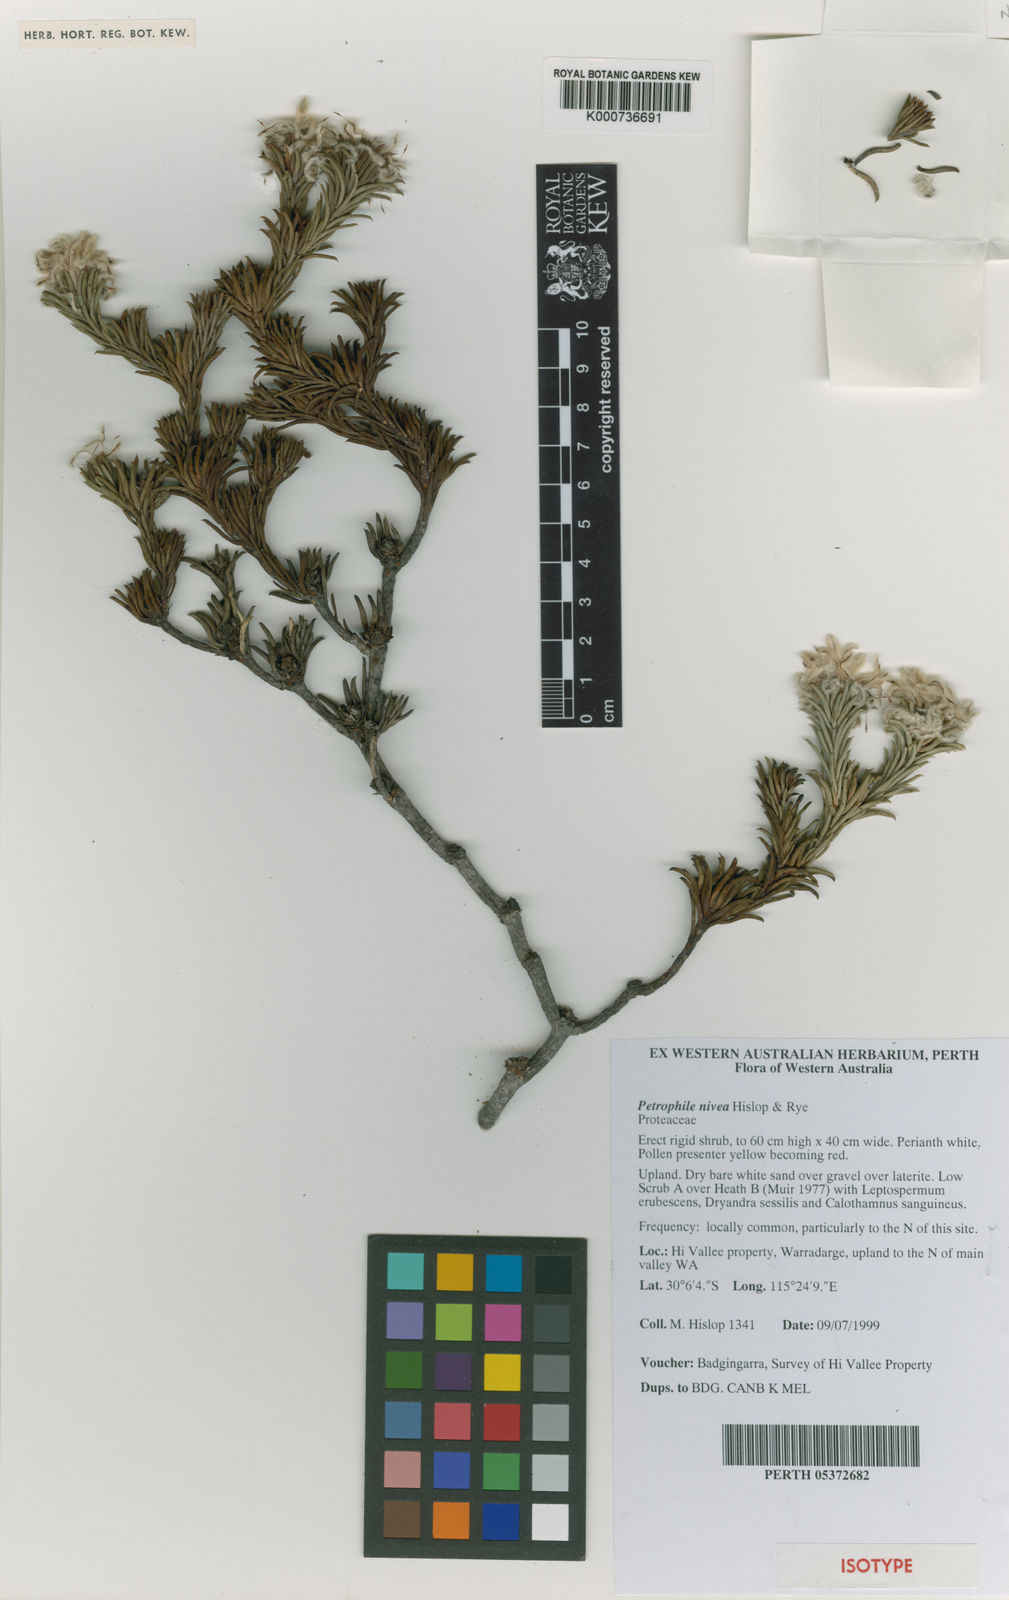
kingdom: Plantae
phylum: Tracheophyta
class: Magnoliopsida
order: Proteales
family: Proteaceae
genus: Petrophile
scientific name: Petrophile nivea
